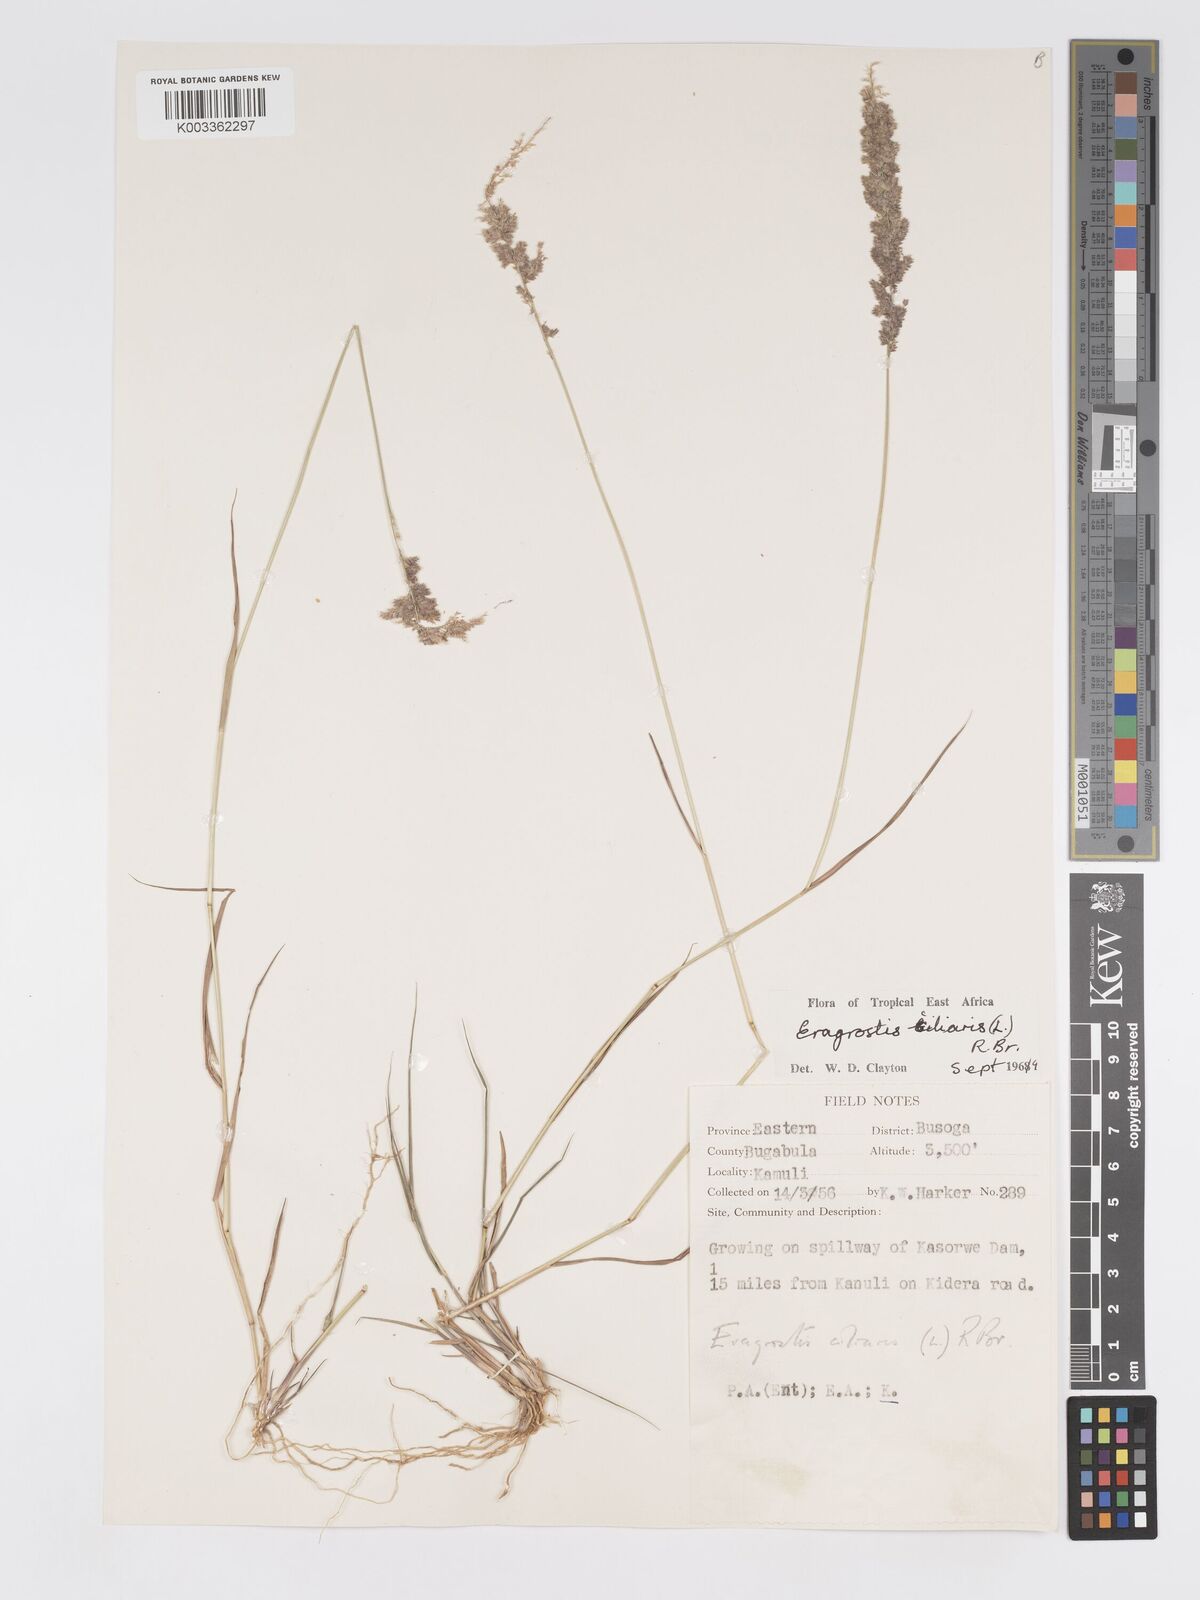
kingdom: Plantae
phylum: Tracheophyta
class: Liliopsida
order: Poales
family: Poaceae
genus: Eragrostis
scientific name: Eragrostis ciliaris
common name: Gophertail lovegrass
